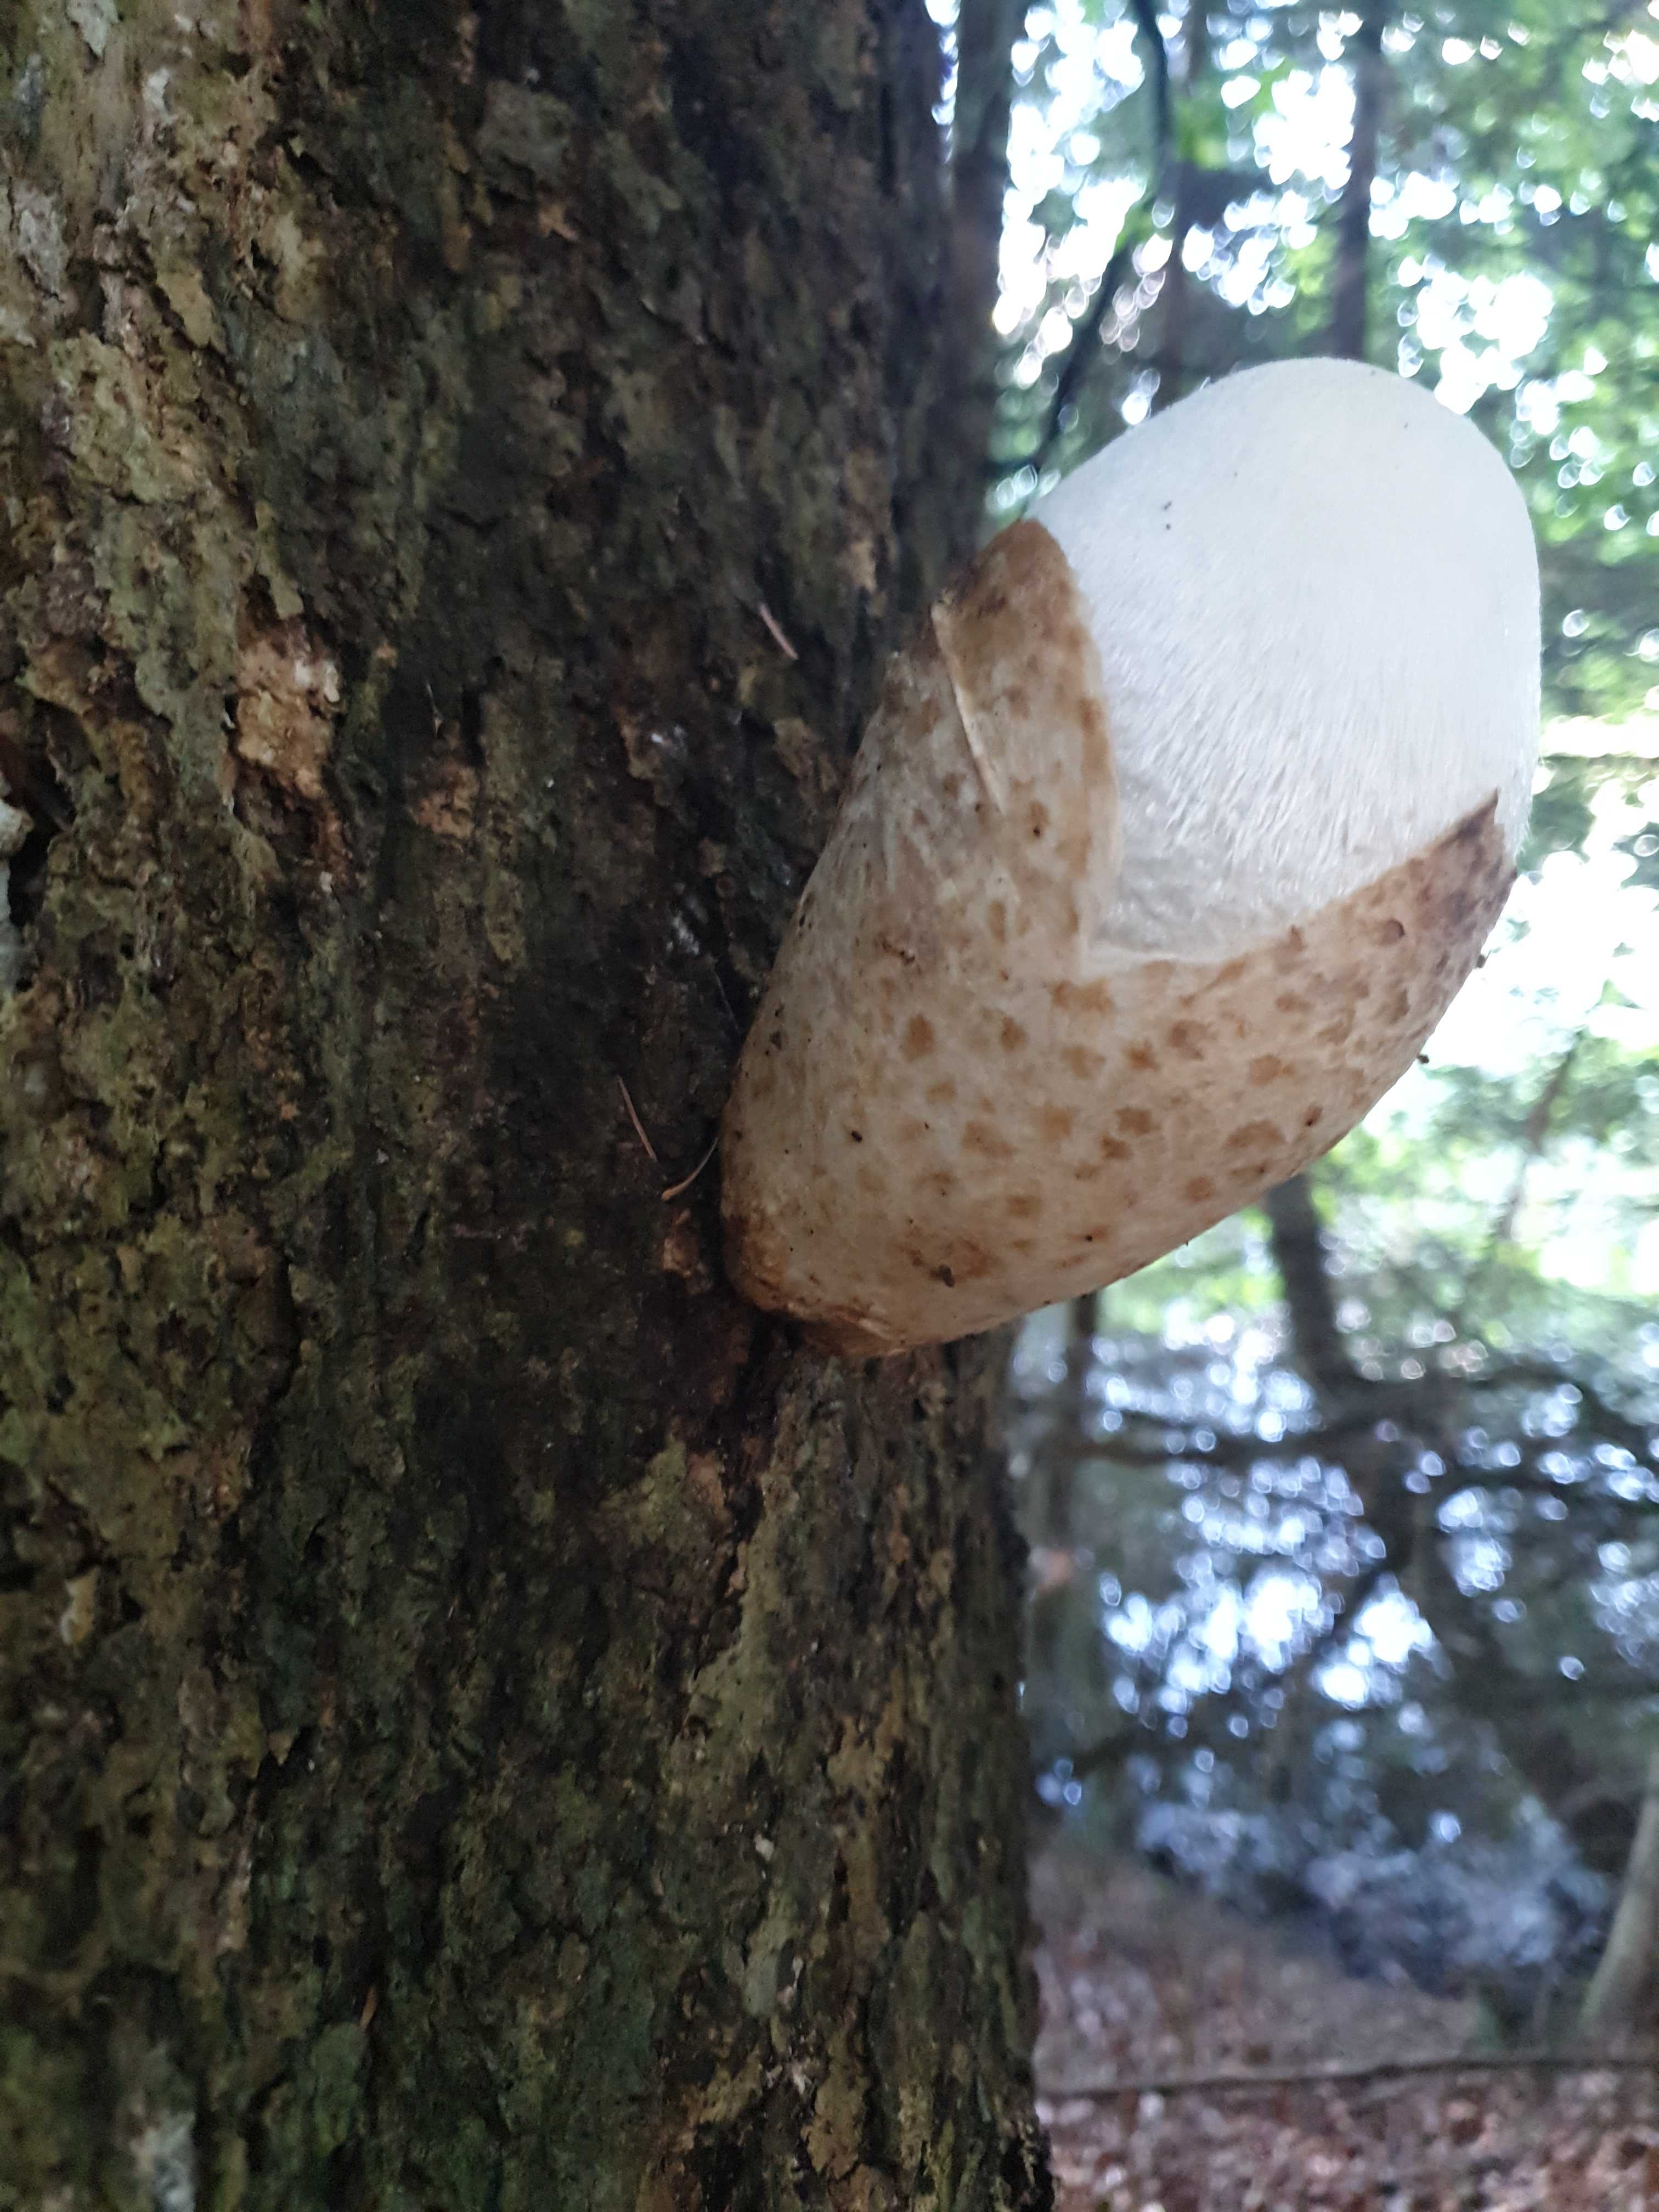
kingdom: Fungi
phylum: Basidiomycota
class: Agaricomycetes
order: Agaricales
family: Pluteaceae
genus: Volvariella
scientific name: Volvariella bombycina
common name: silkehåret posesvamp
